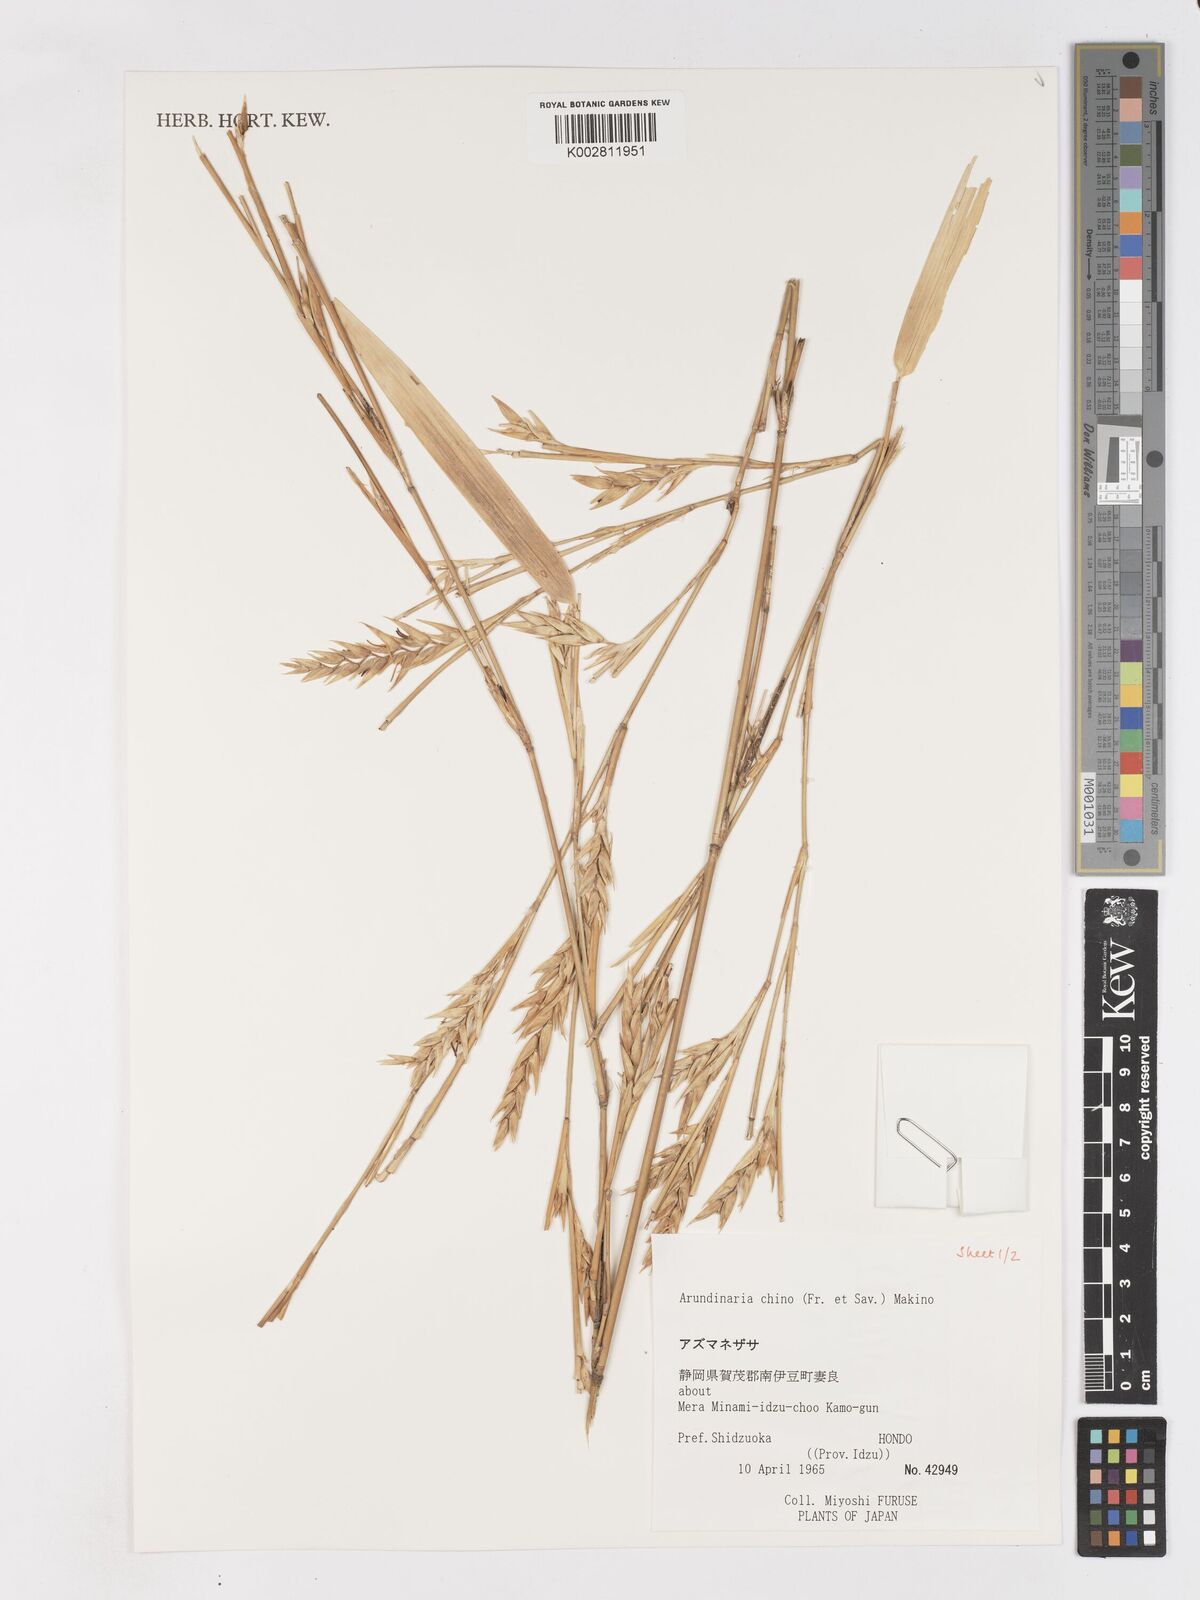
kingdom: Plantae
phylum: Tracheophyta
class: Liliopsida
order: Poales
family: Poaceae
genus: Pleioblastus
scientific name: Pleioblastus argenteostriatus
